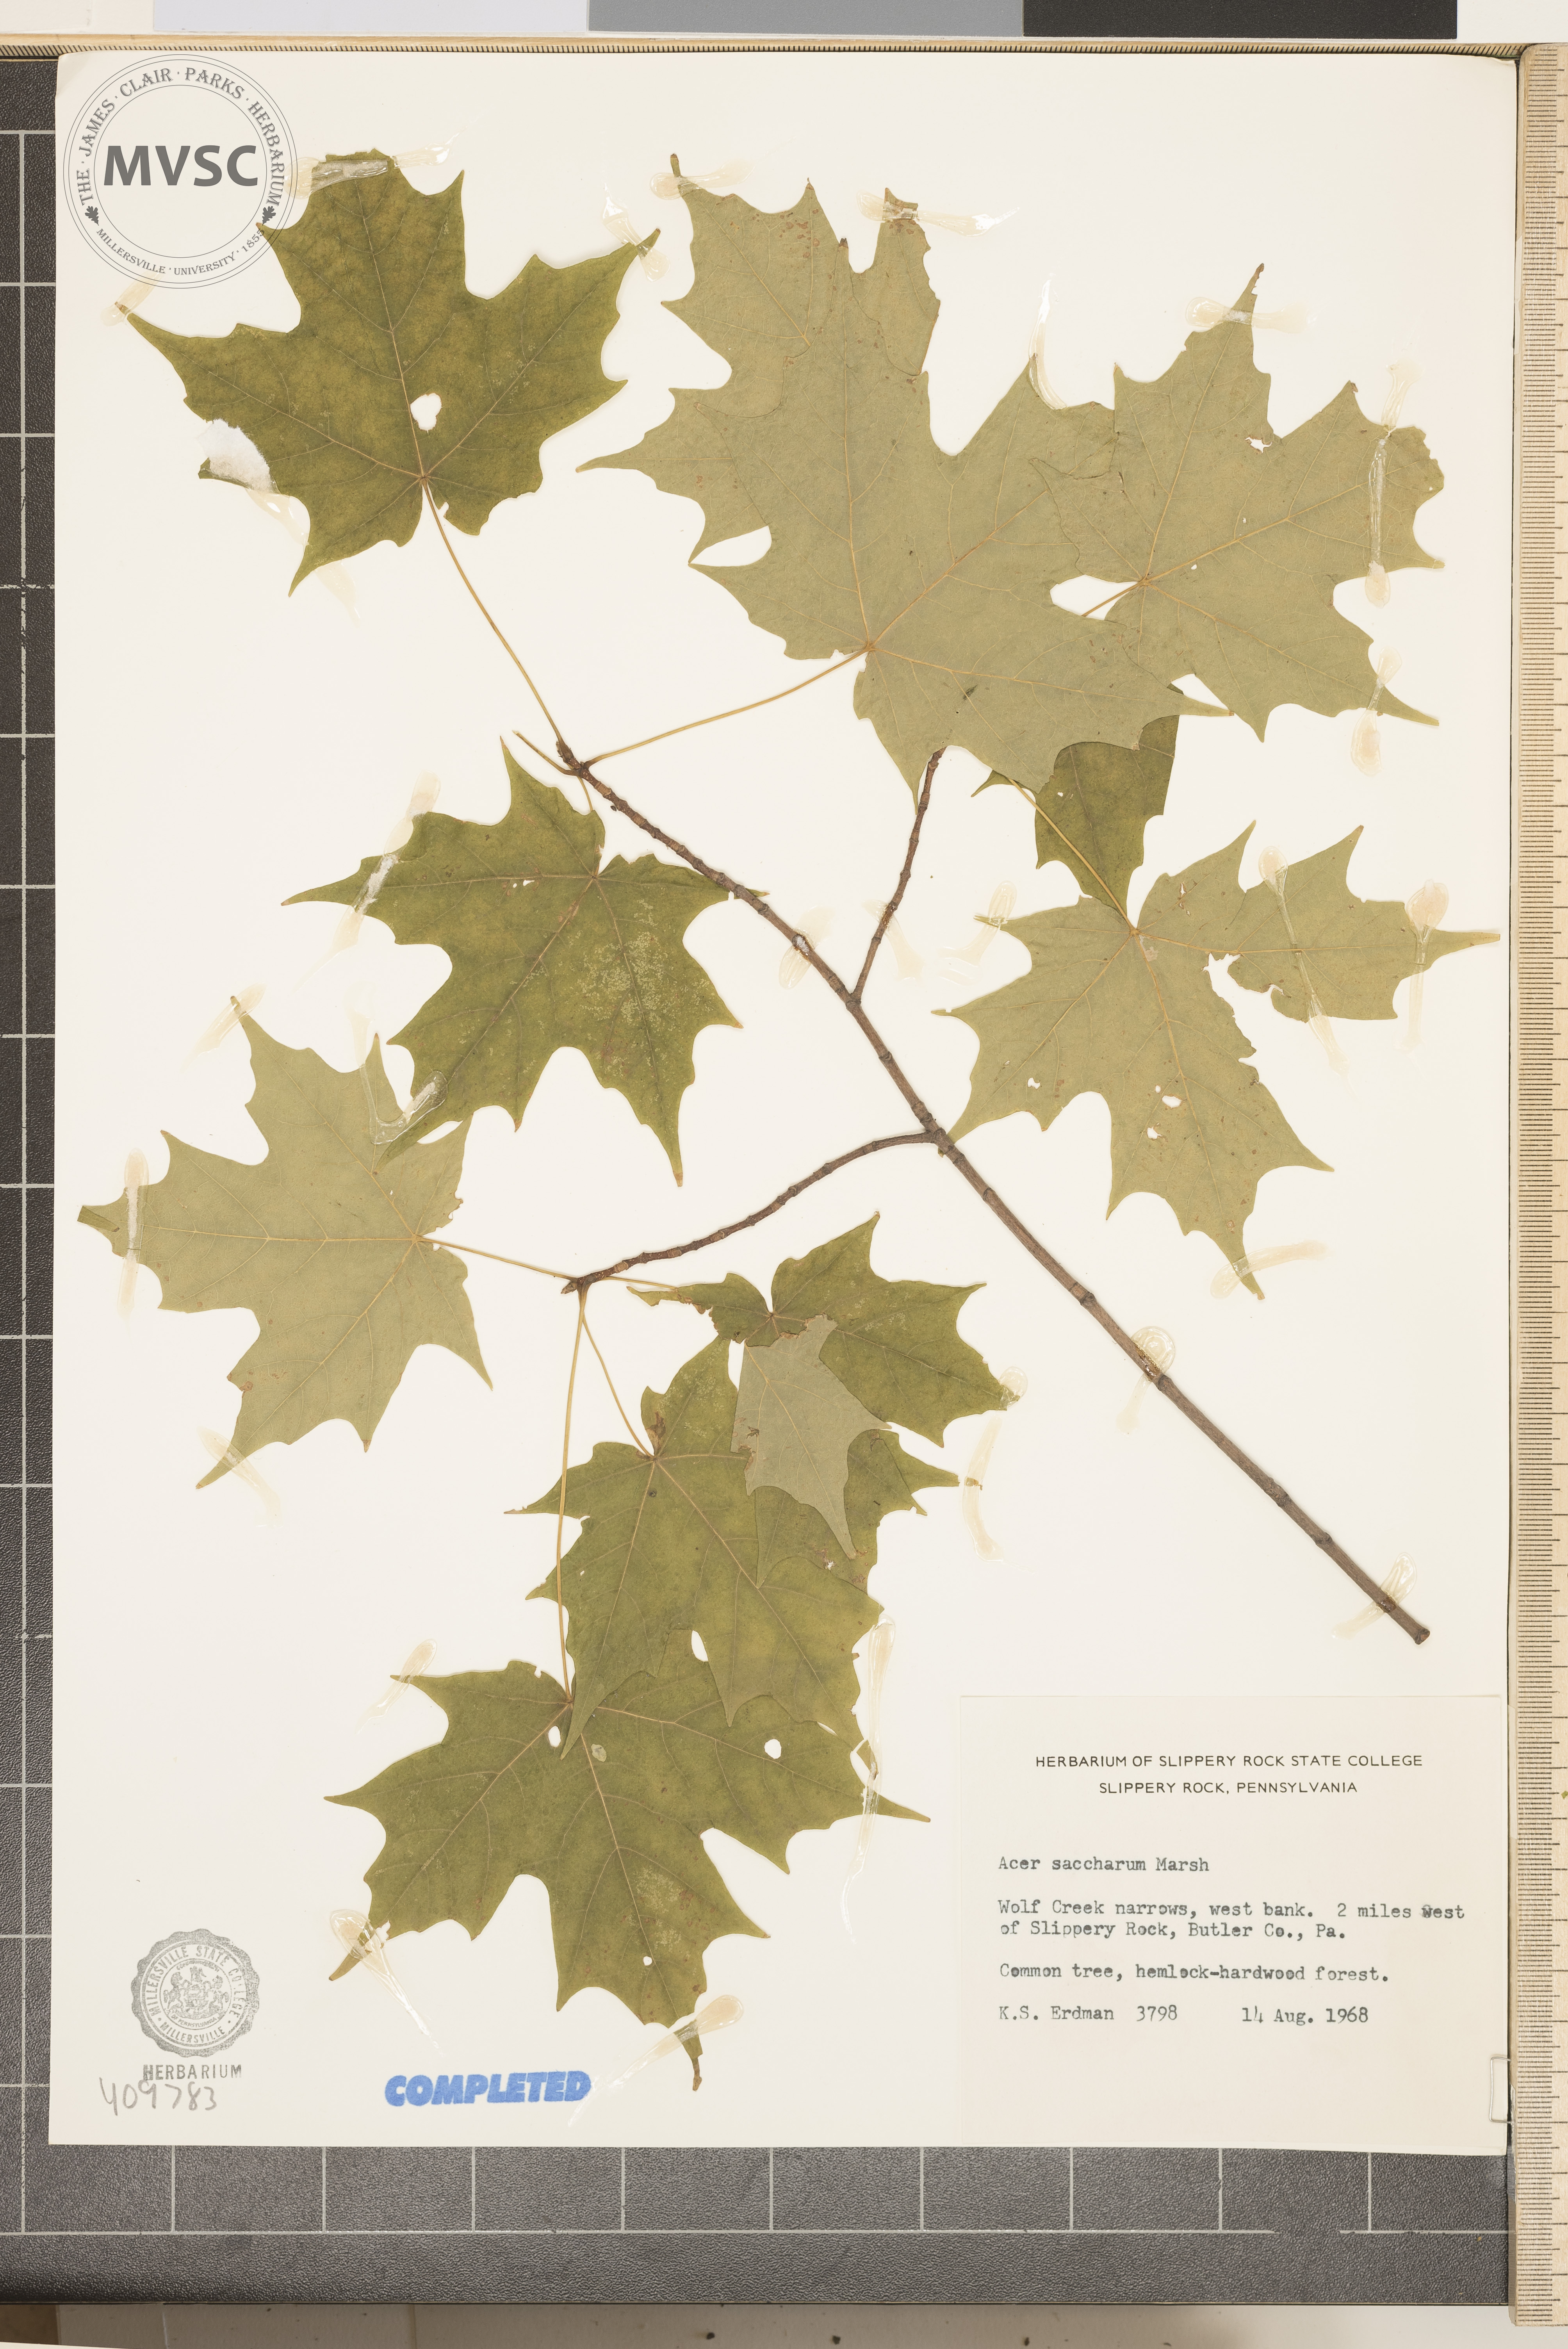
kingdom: Plantae
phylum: Tracheophyta
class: Magnoliopsida
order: Sapindales
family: Sapindaceae
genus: Acer
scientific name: Acer saccharum
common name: Sugar maple
